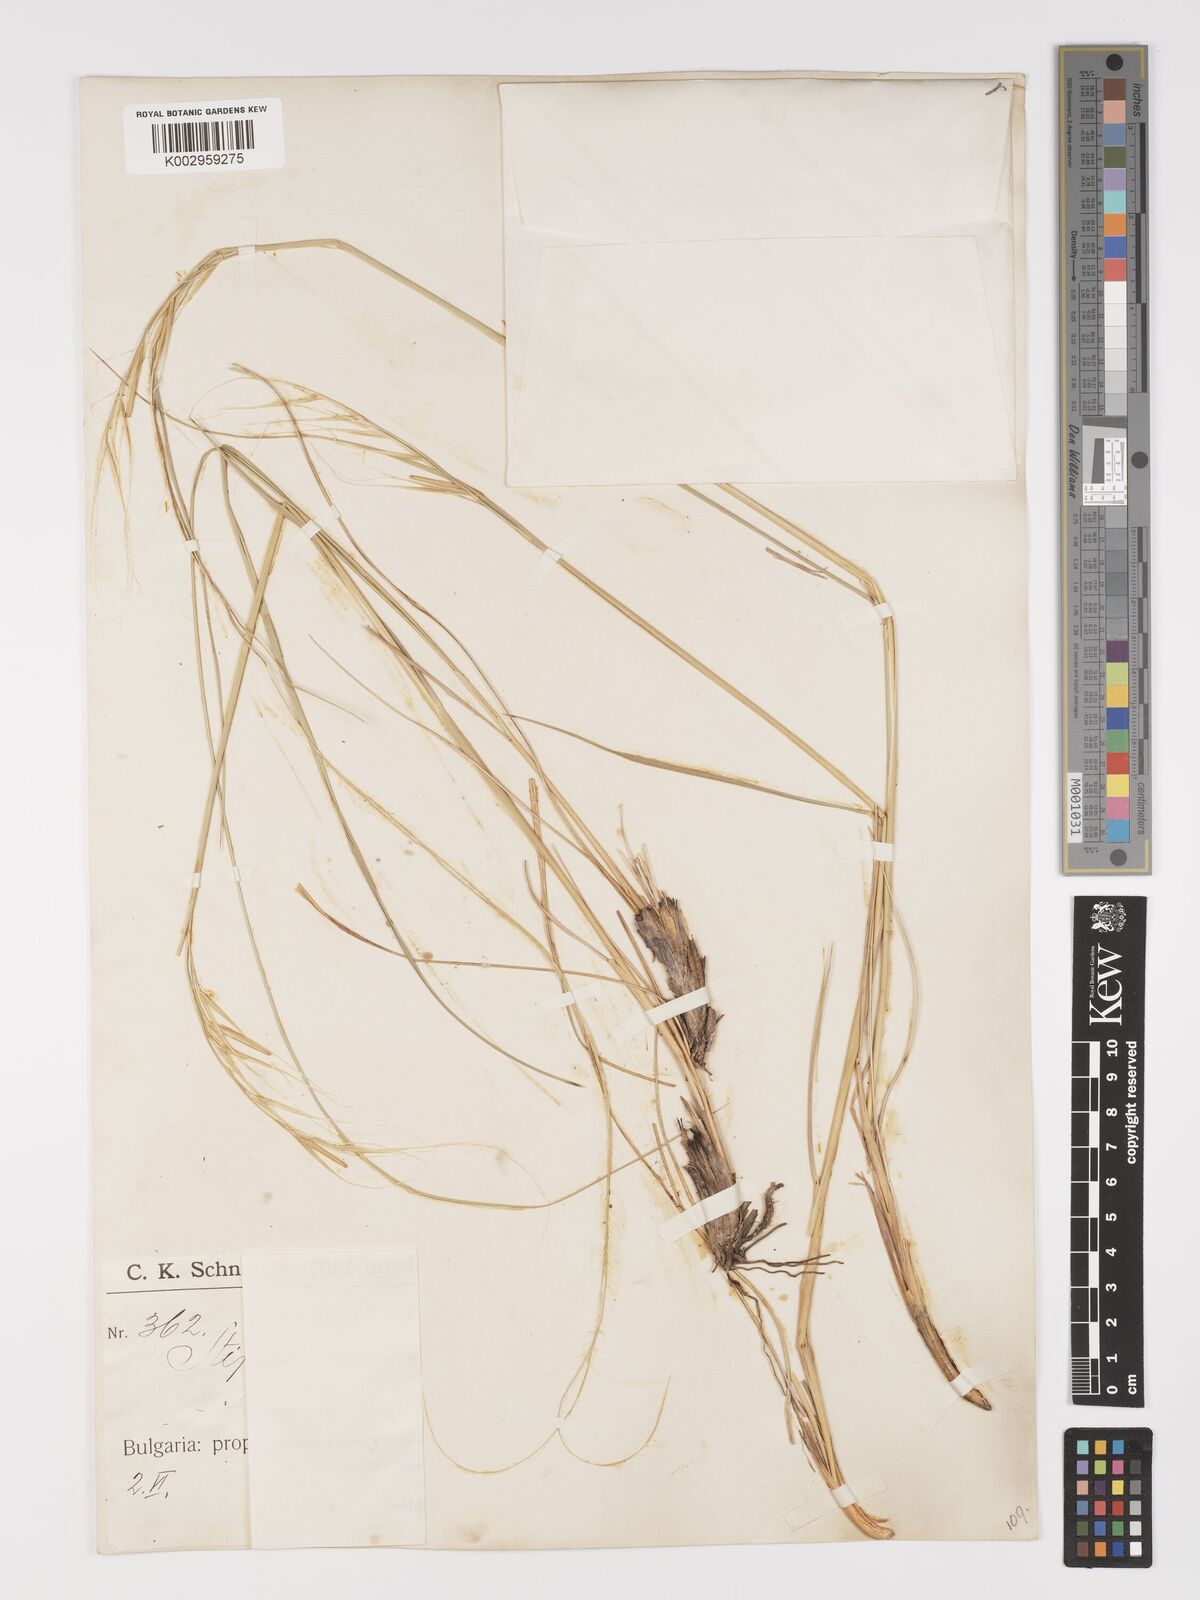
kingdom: Plantae
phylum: Tracheophyta
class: Liliopsida
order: Poales
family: Poaceae
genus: Stipa
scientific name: Stipa pulcherrima
